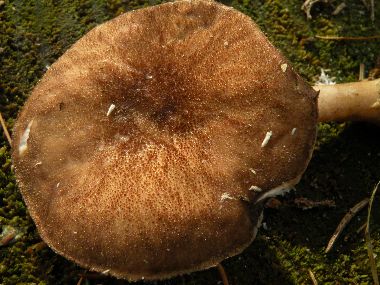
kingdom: Fungi
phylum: Basidiomycota
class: Agaricomycetes
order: Agaricales
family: Pluteaceae
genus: Pluteus
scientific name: Pluteus umbrosus
